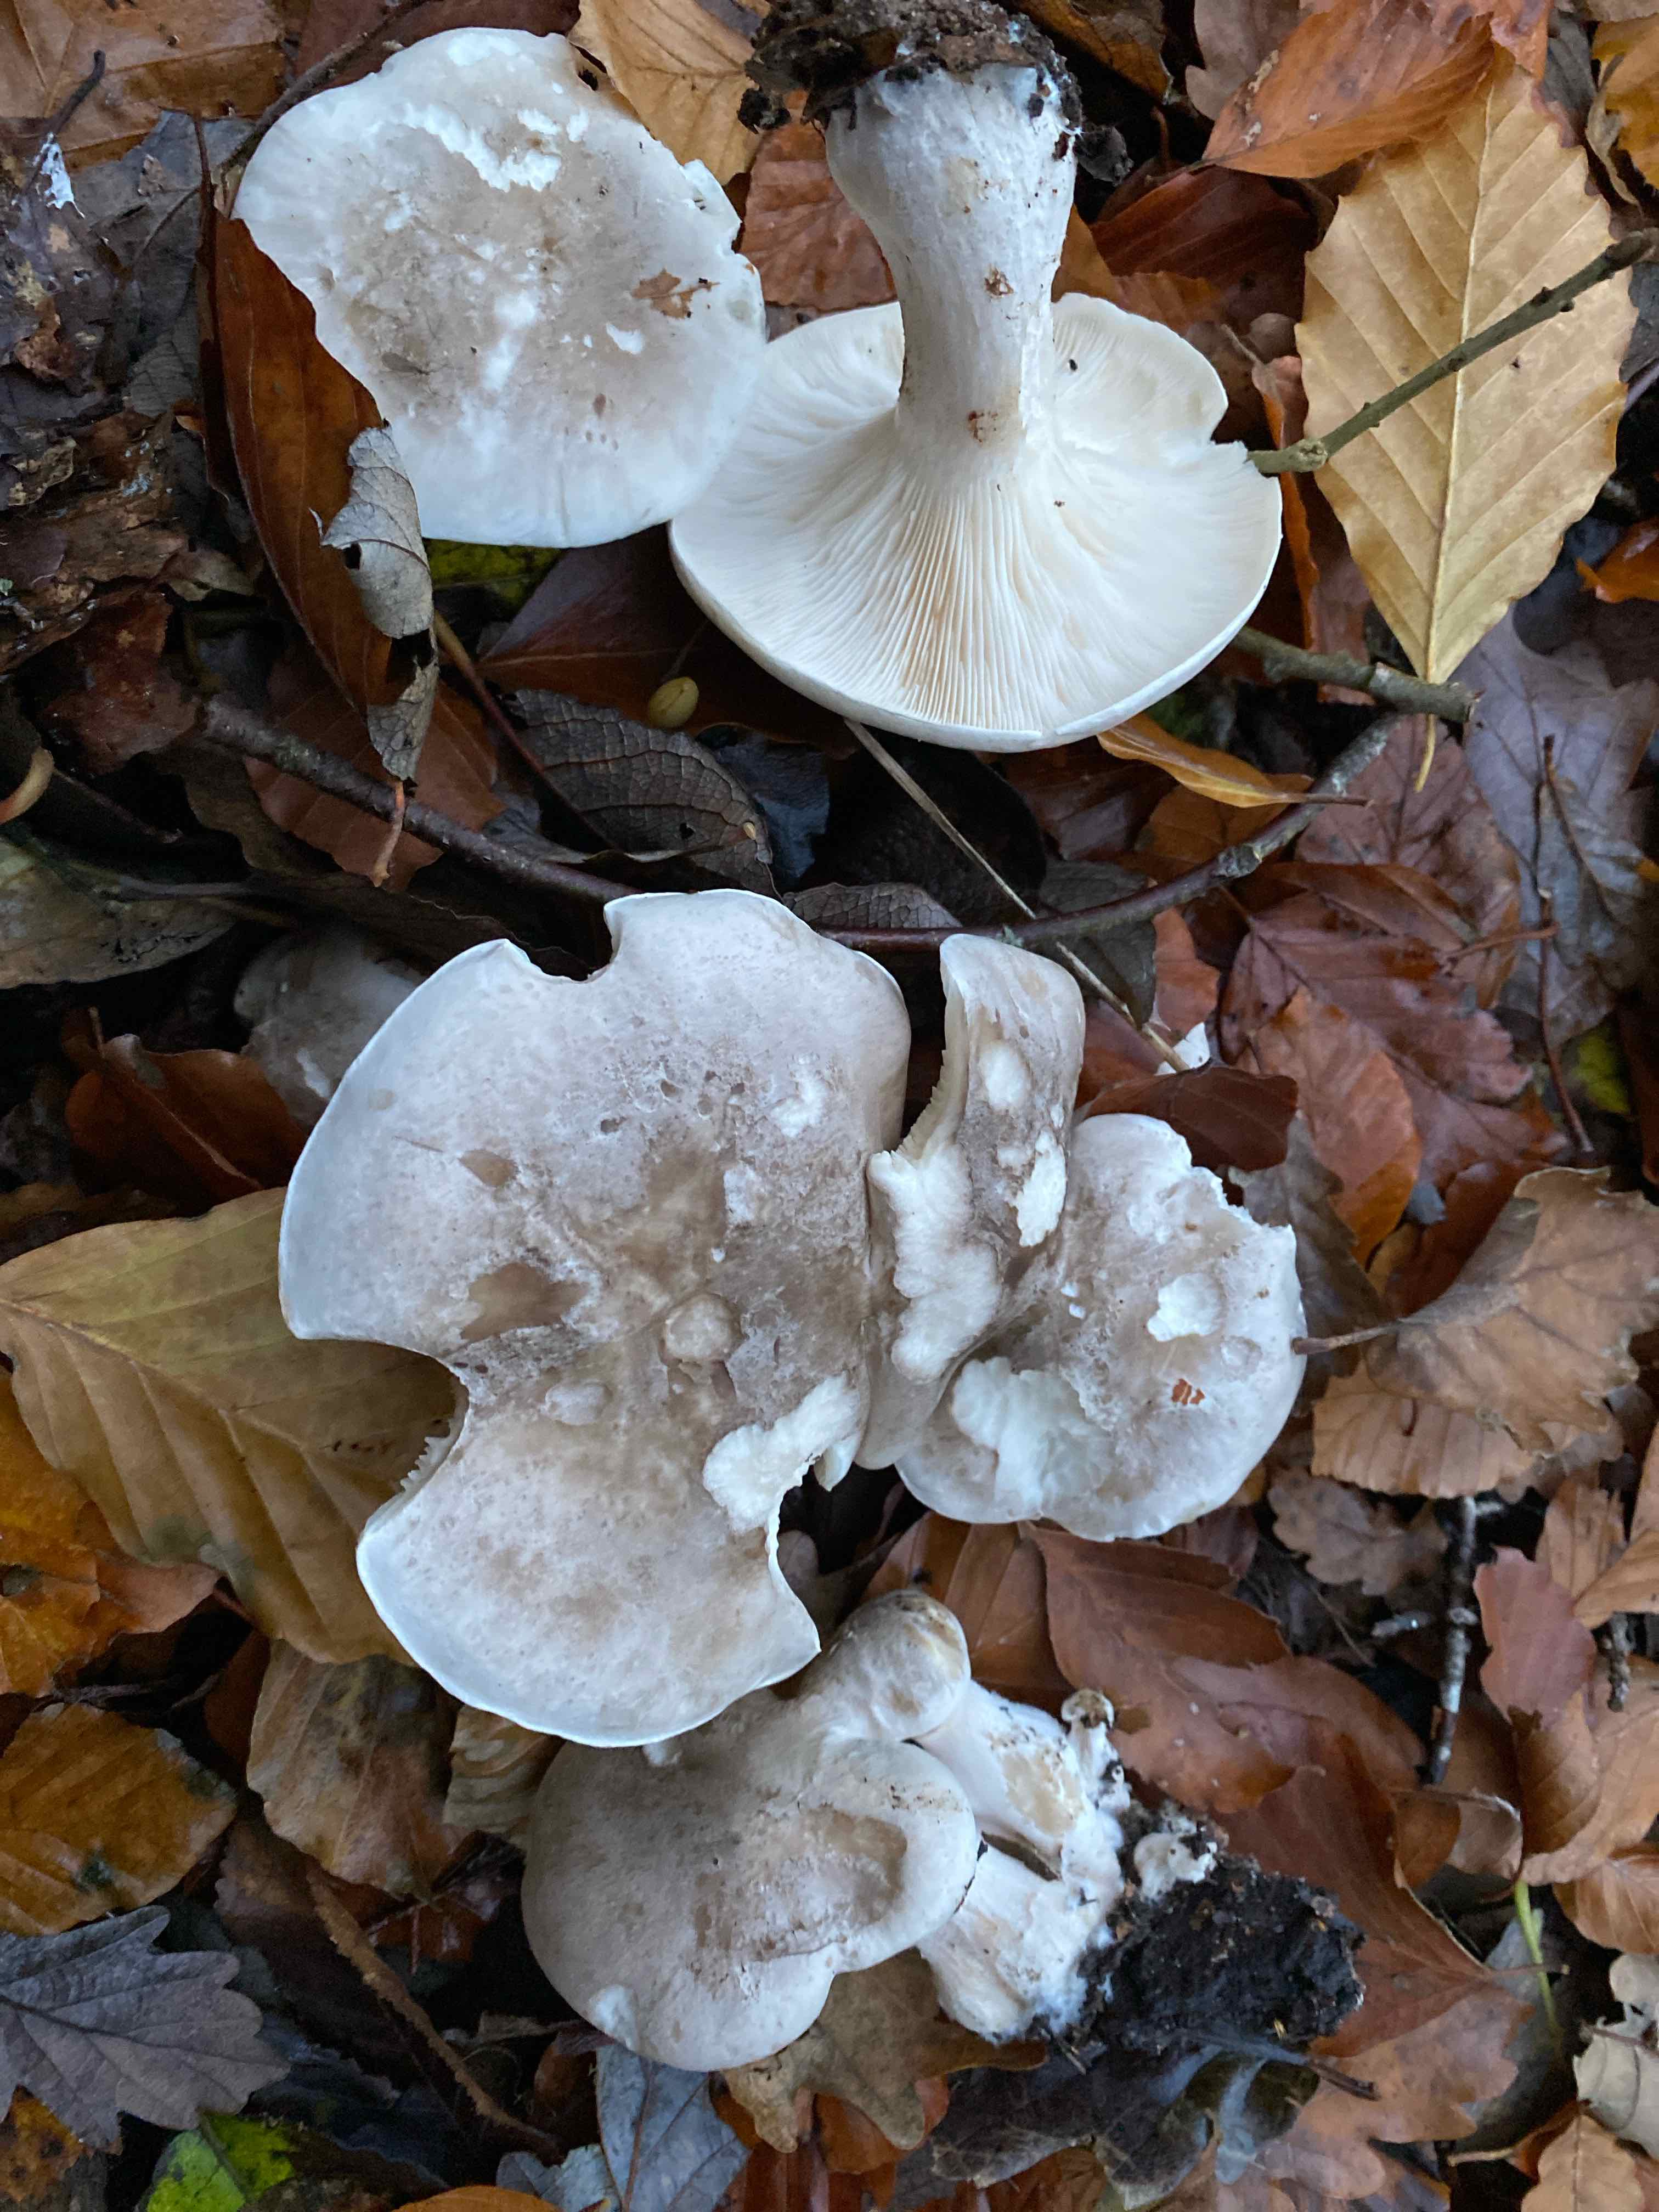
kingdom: Fungi
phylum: Basidiomycota
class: Agaricomycetes
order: Agaricales
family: Tricholomataceae
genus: Clitocybe
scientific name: Clitocybe nebularis
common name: tåge-tragthat
